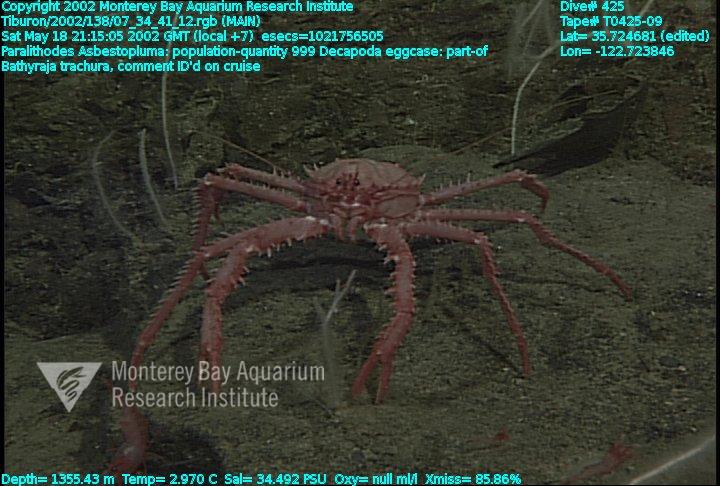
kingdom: Animalia
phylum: Porifera
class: Demospongiae
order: Poecilosclerida
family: Cladorhizidae
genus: Asbestopluma
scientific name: Asbestopluma
